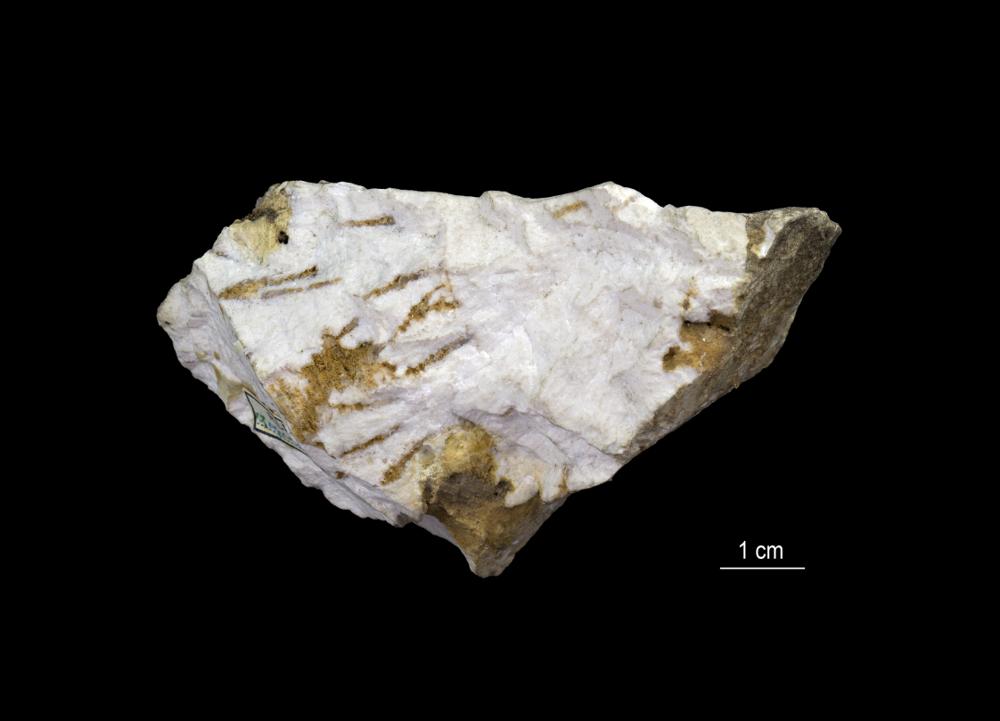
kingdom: Animalia
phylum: Porifera
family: Chaetetidae
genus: Solenopora
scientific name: Solenopora spongioides
